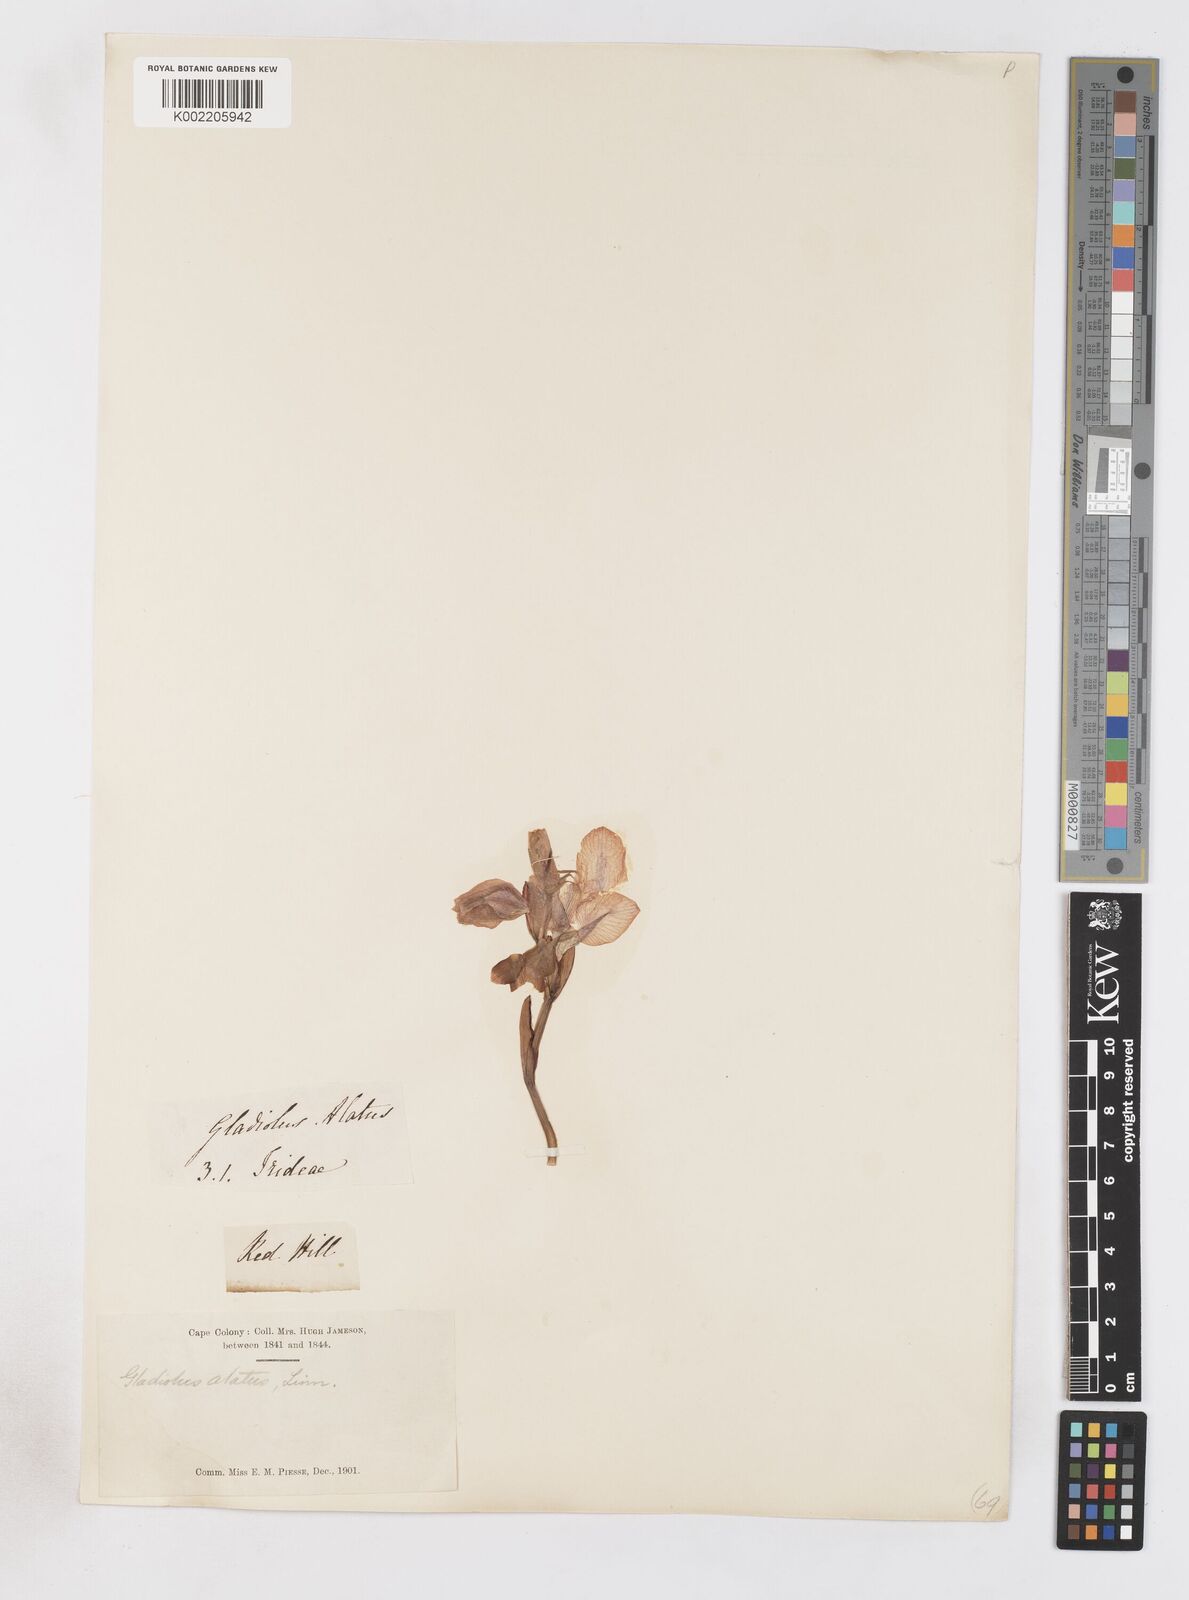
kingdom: Plantae
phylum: Tracheophyta
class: Liliopsida
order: Asparagales
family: Iridaceae
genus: Gladiolus
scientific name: Gladiolus alatus
